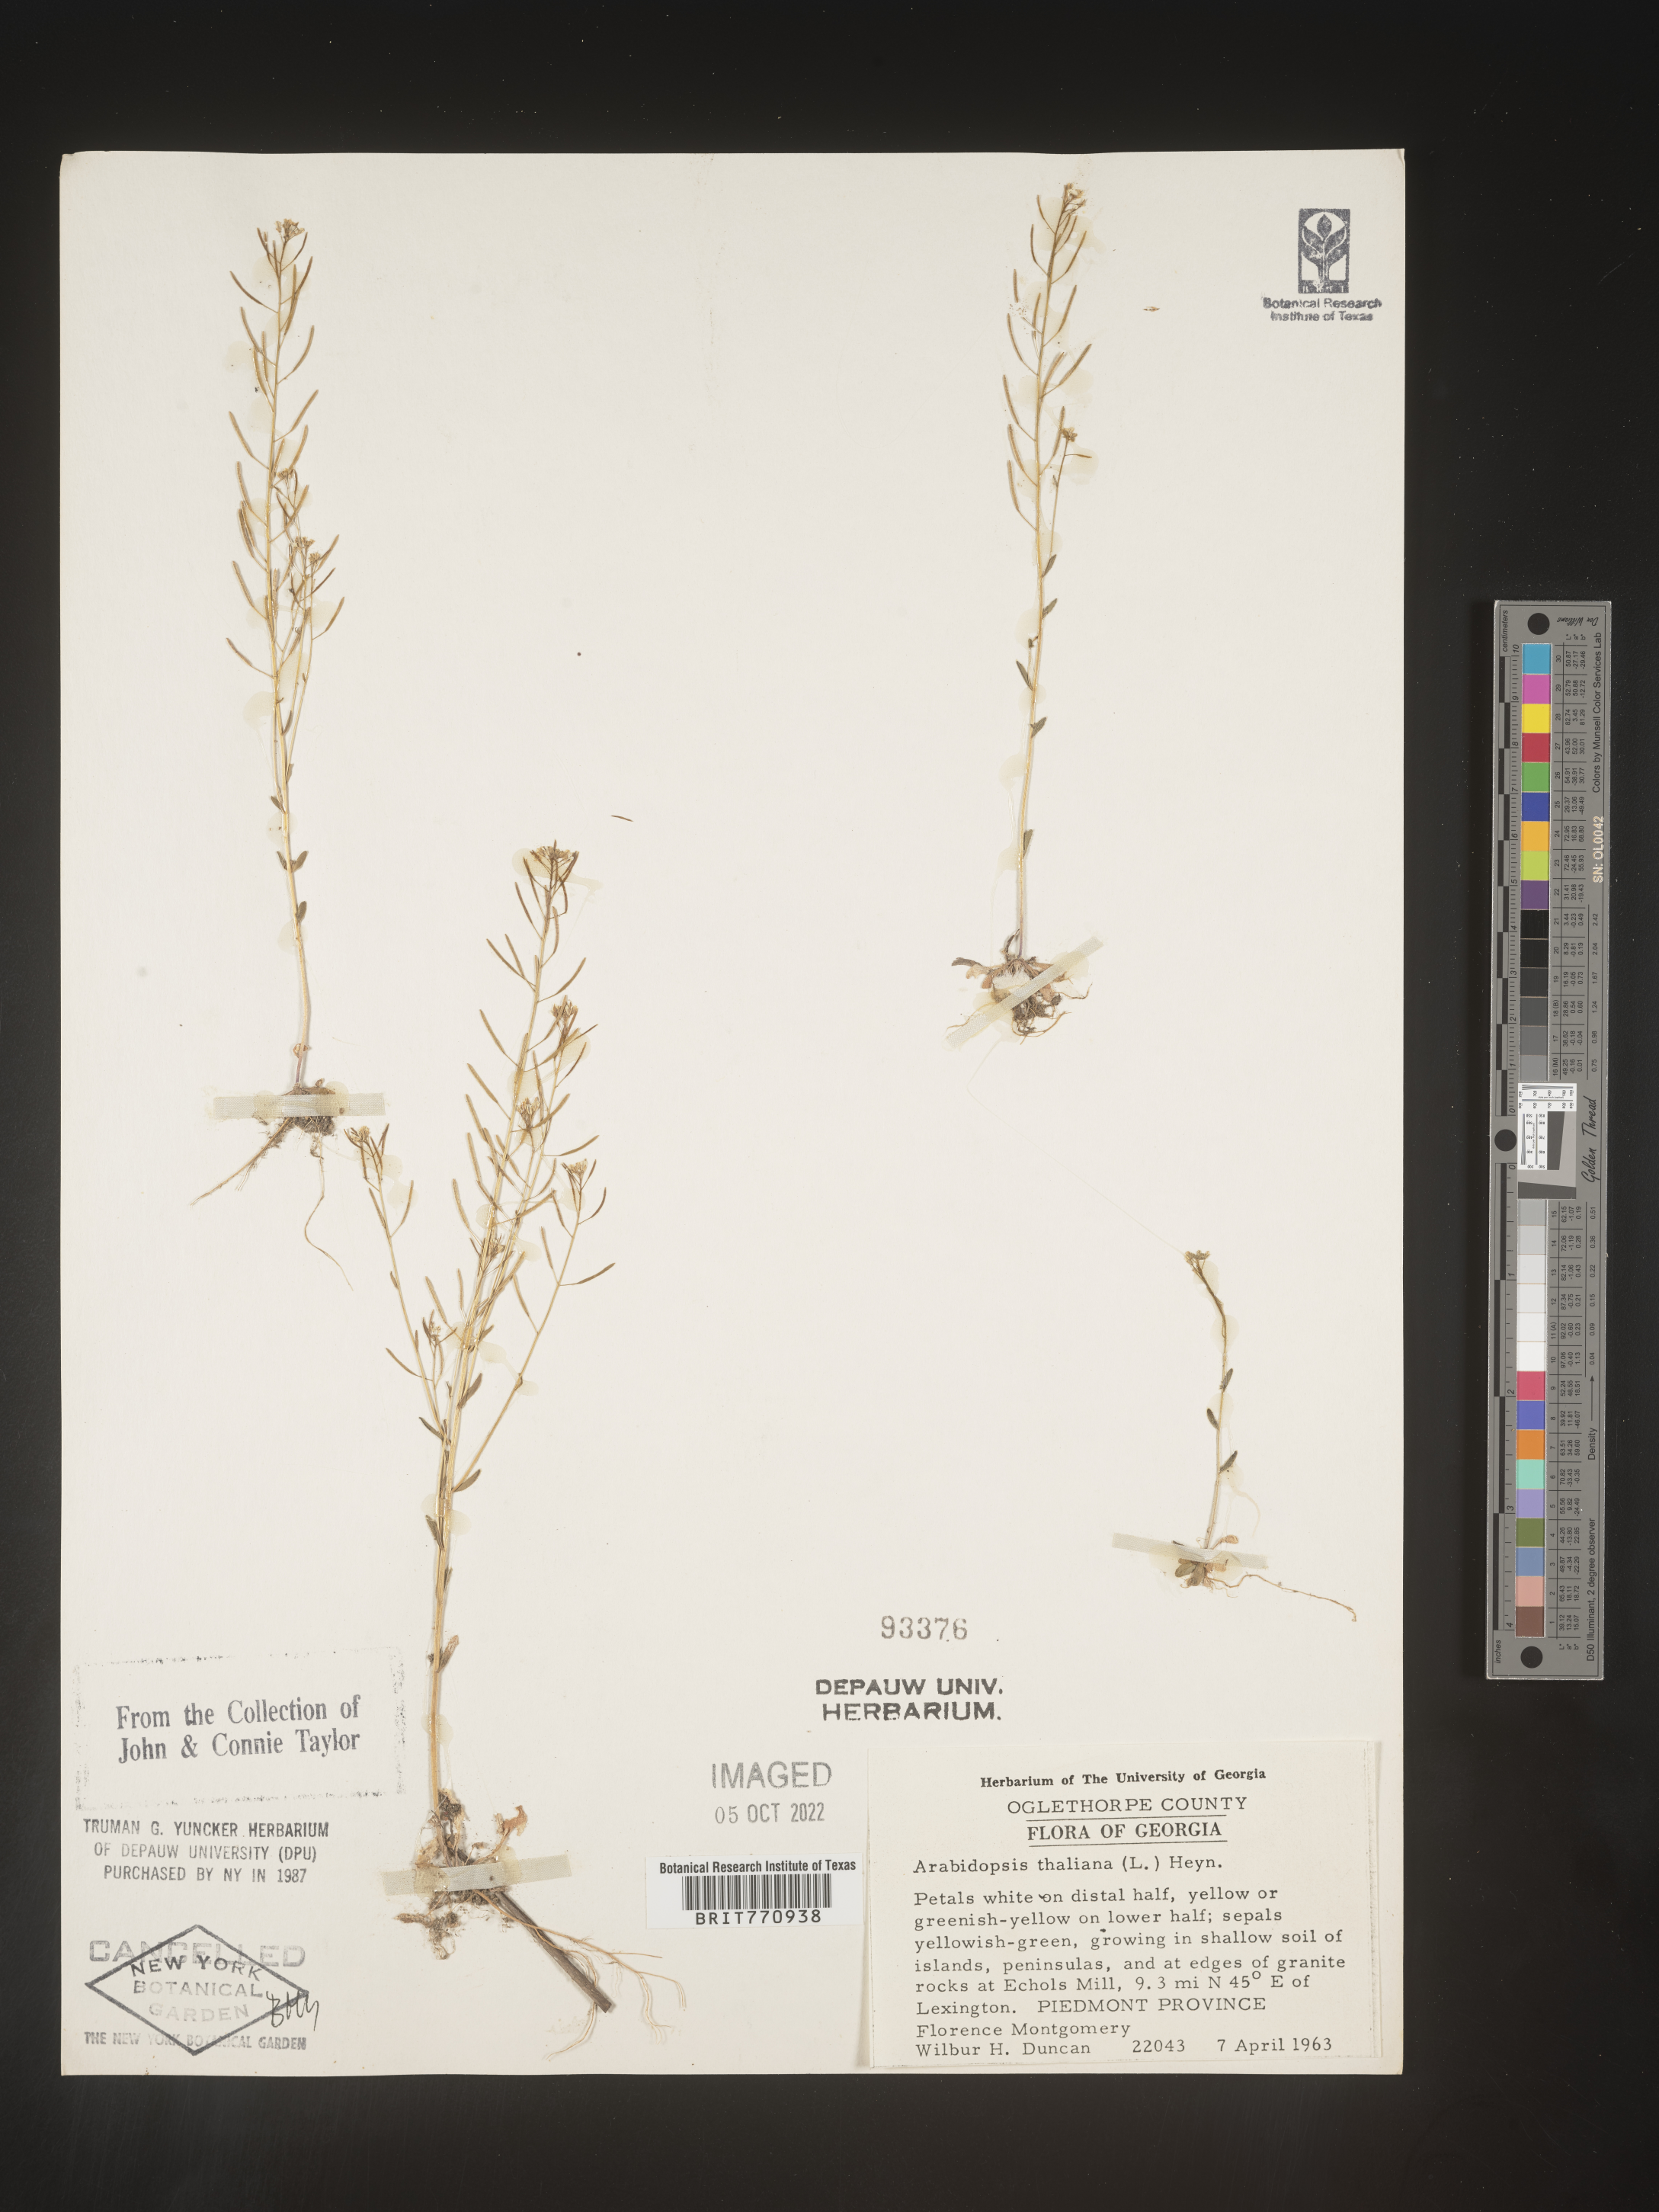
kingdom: Plantae
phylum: Tracheophyta
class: Magnoliopsida
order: Brassicales
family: Brassicaceae
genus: Arabidopsis
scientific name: Arabidopsis thaliana
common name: Thale cress
